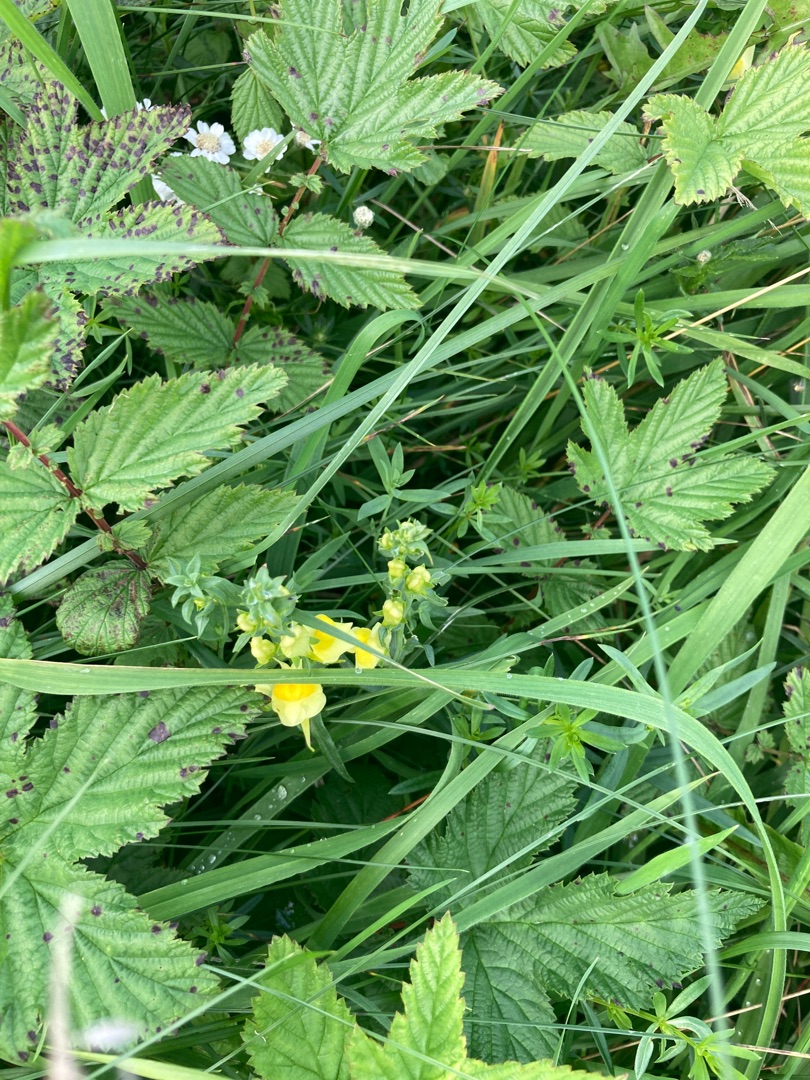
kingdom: Plantae
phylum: Tracheophyta
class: Magnoliopsida
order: Lamiales
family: Plantaginaceae
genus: Linaria
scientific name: Linaria vulgaris
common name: Almindelig torskemund
